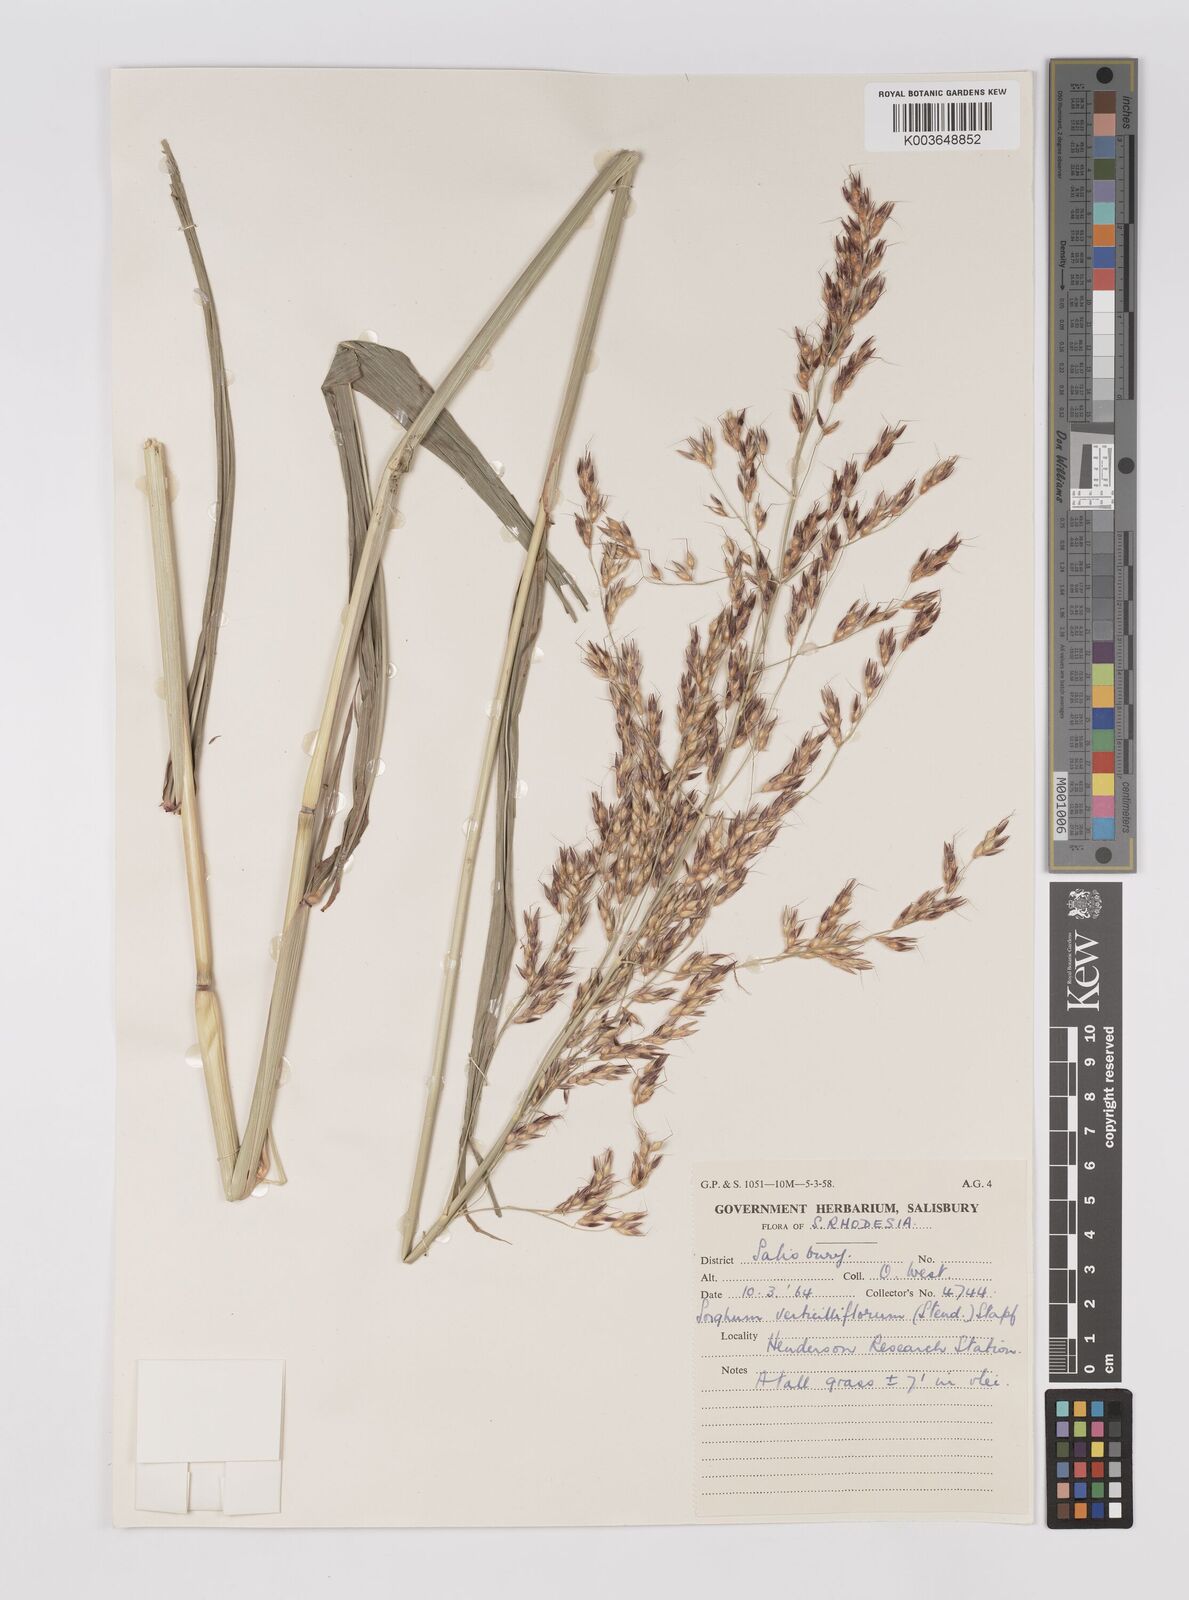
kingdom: Plantae
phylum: Tracheophyta
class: Liliopsida
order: Poales
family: Poaceae
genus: Sorghum
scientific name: Sorghum arundinaceum
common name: Sorghum
